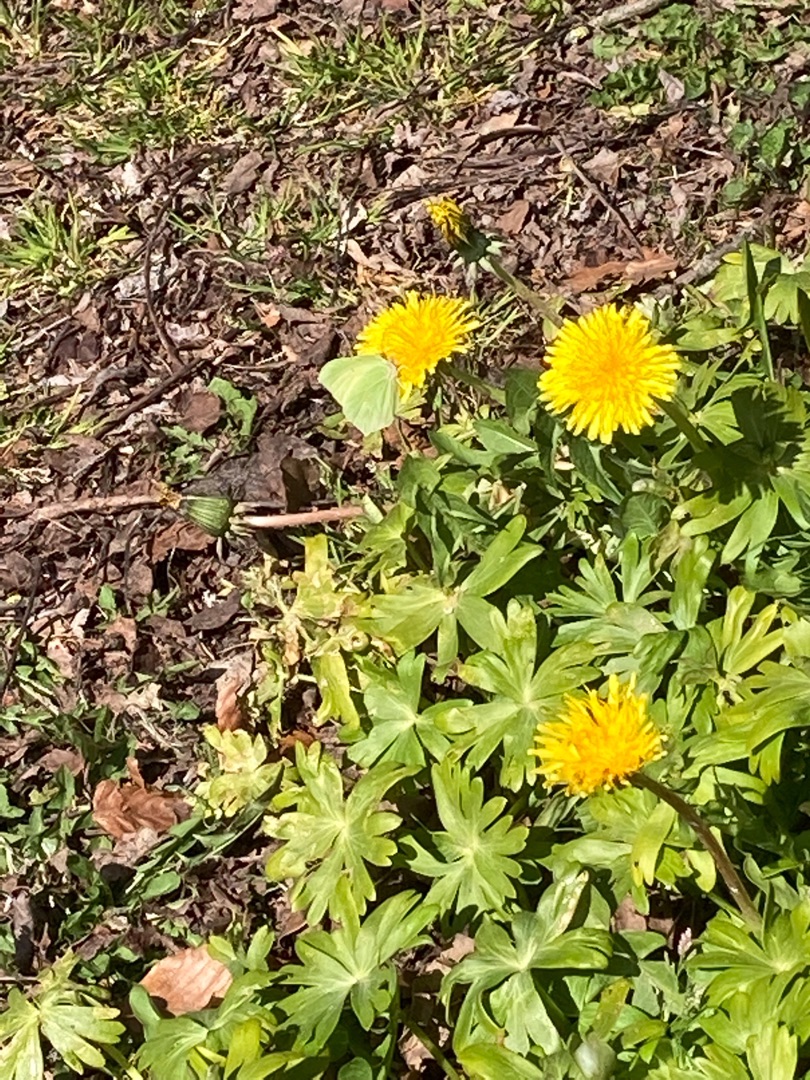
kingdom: Animalia
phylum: Arthropoda
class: Insecta
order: Lepidoptera
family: Pieridae
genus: Gonepteryx
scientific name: Gonepteryx rhamni
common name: Citronsommerfugl
